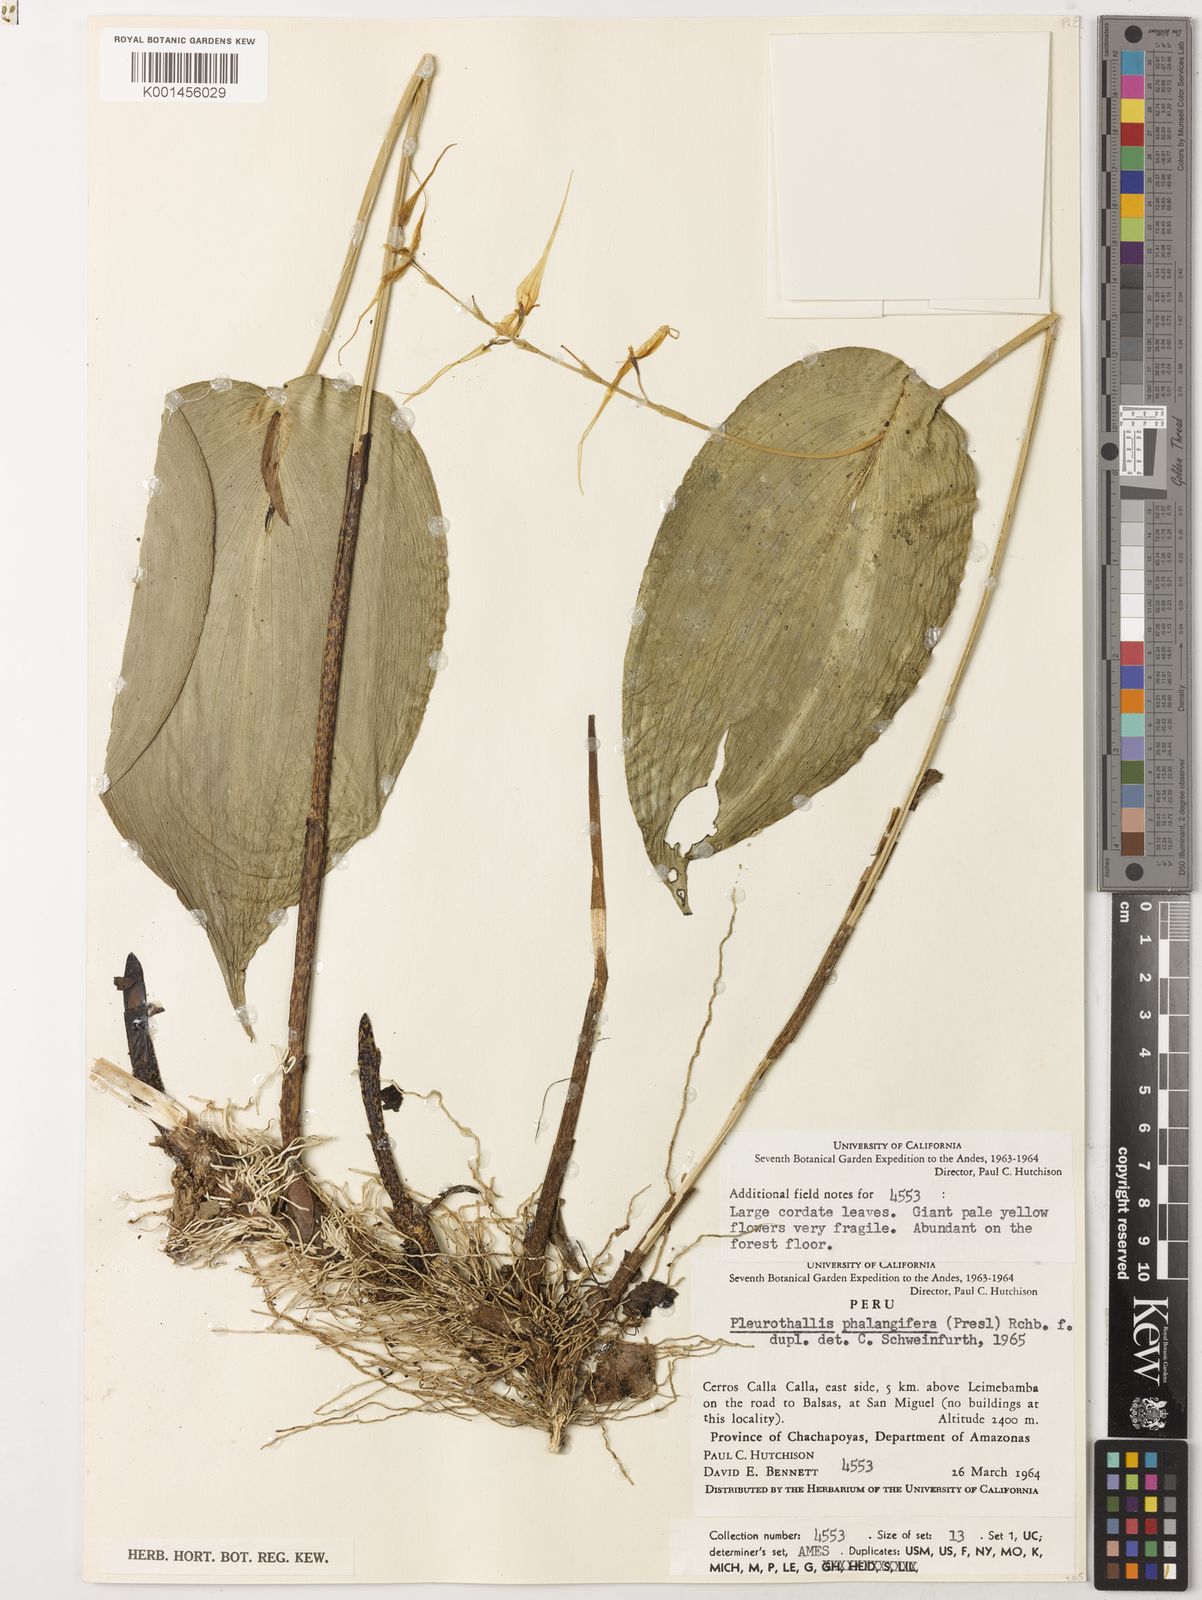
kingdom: Plantae
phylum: Tracheophyta
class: Liliopsida
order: Asparagales
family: Orchidaceae
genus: Pleurothallis
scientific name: Pleurothallis phalangifera
